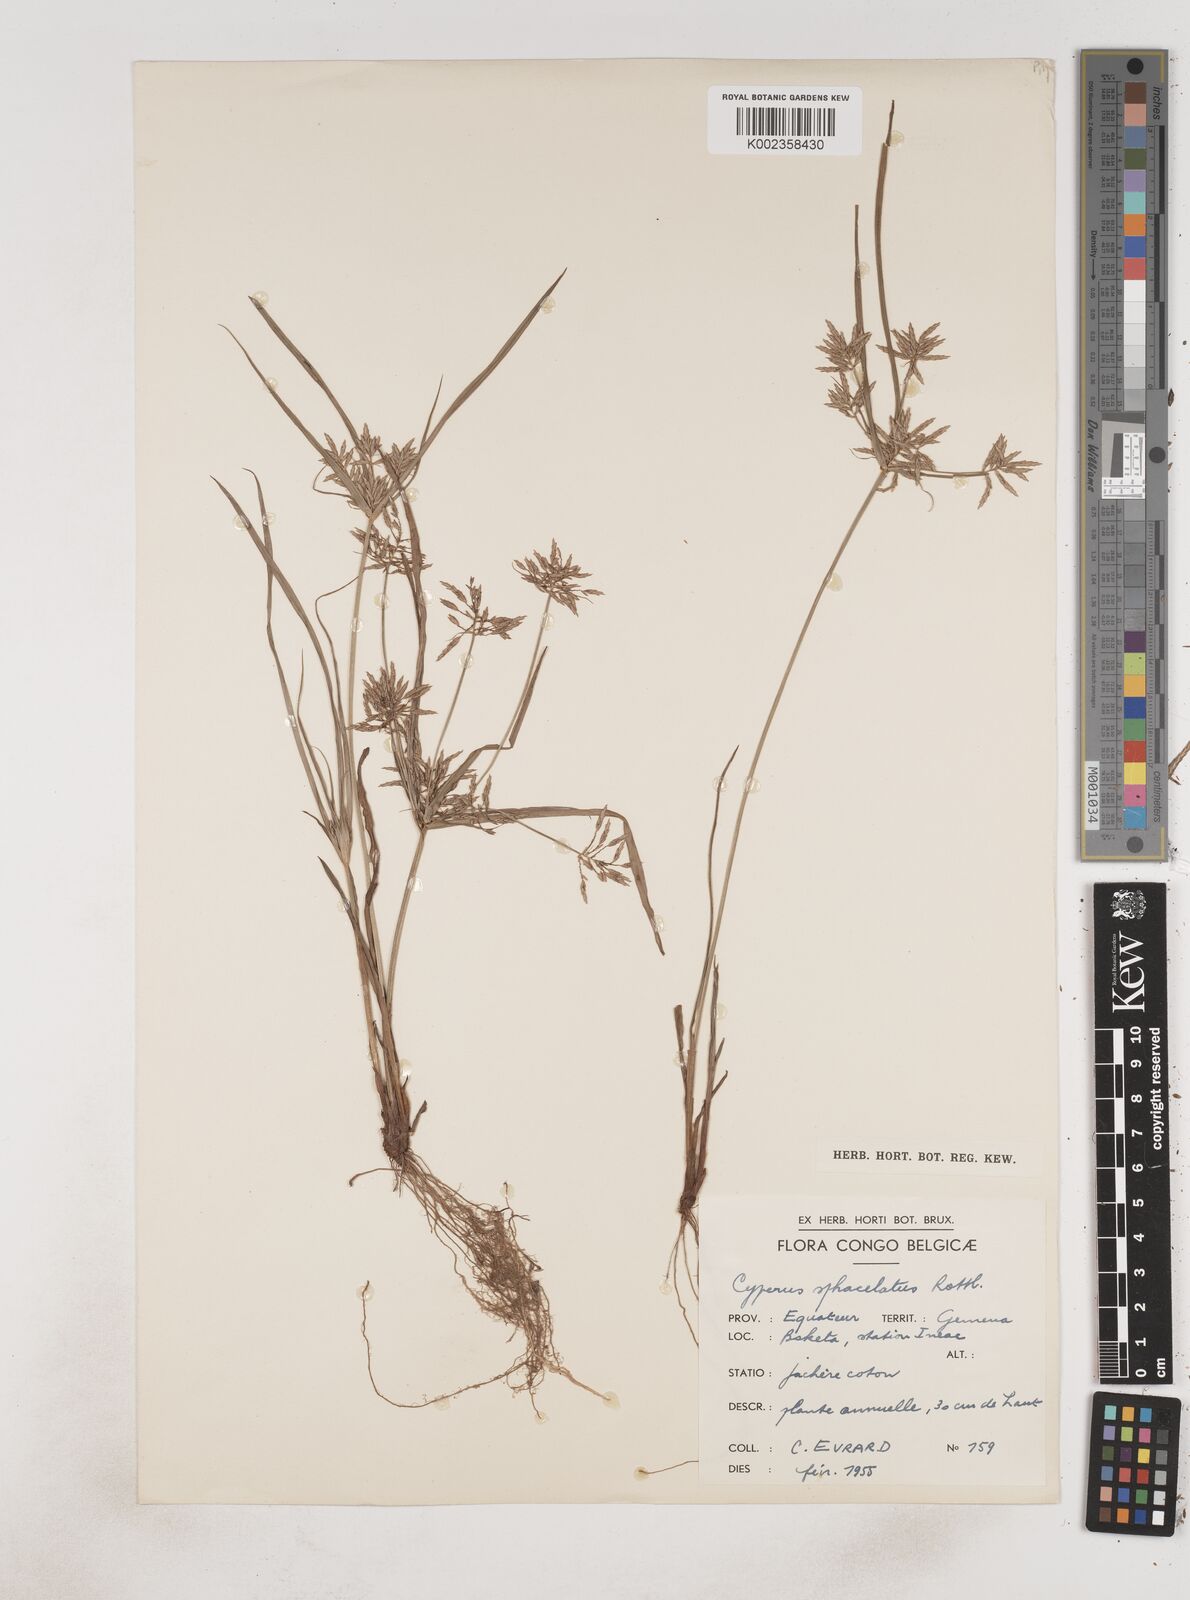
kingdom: Plantae
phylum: Tracheophyta
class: Liliopsida
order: Poales
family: Cyperaceae
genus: Cyperus
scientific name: Cyperus sphacelatus
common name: Roadside flatsedge
